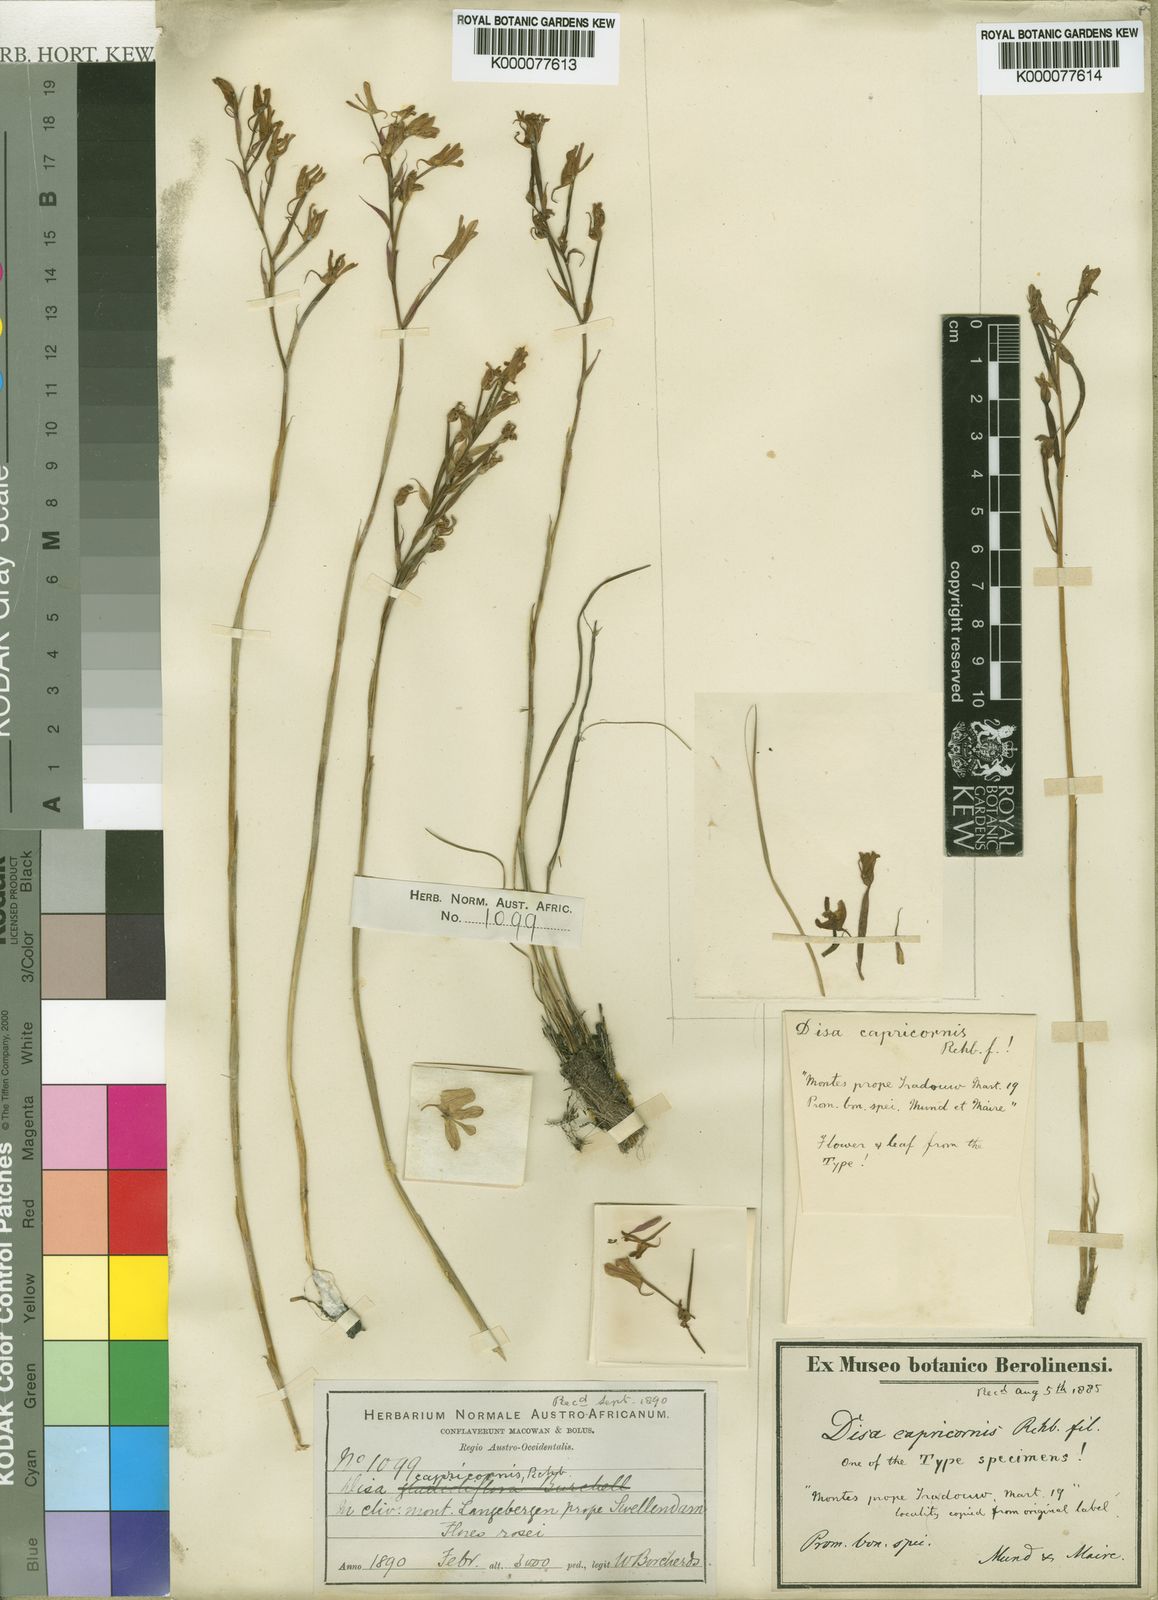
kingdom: Plantae
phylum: Tracheophyta
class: Liliopsida
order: Asparagales
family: Orchidaceae
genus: Disa
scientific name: Disa gladioliflora
